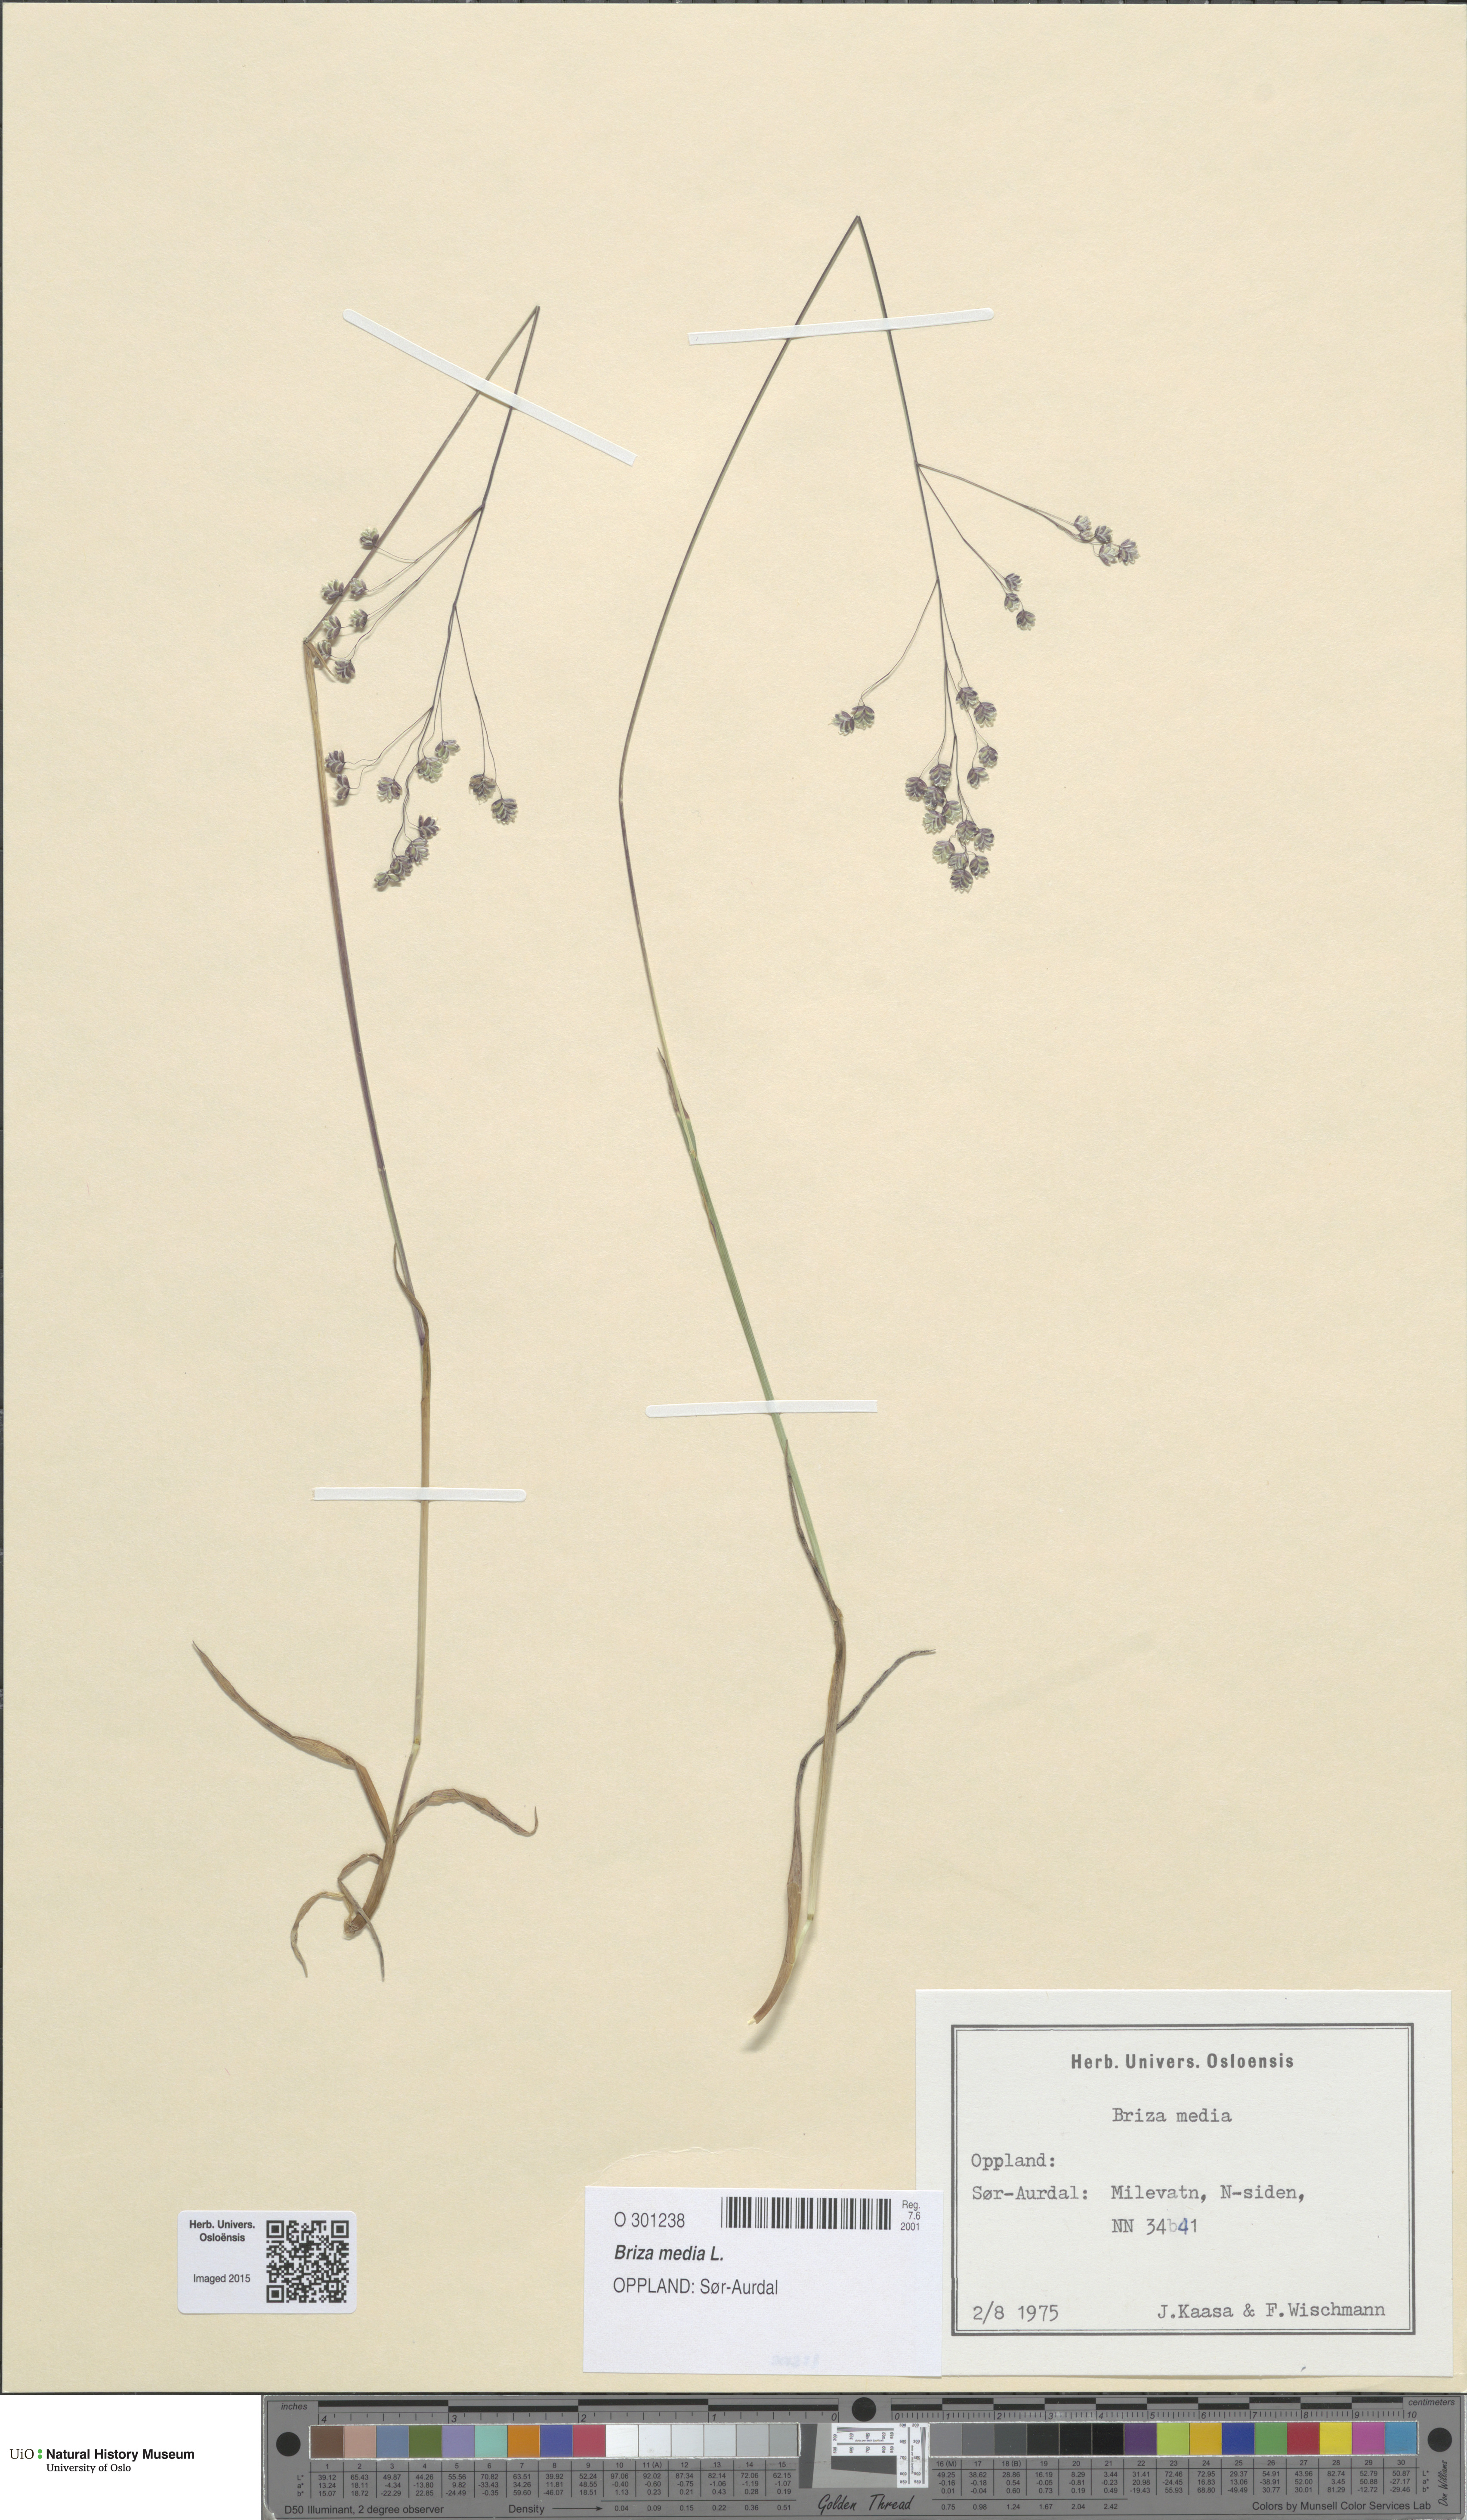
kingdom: Plantae
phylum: Tracheophyta
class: Liliopsida
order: Poales
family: Poaceae
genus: Briza
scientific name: Briza media
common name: Quaking grass
